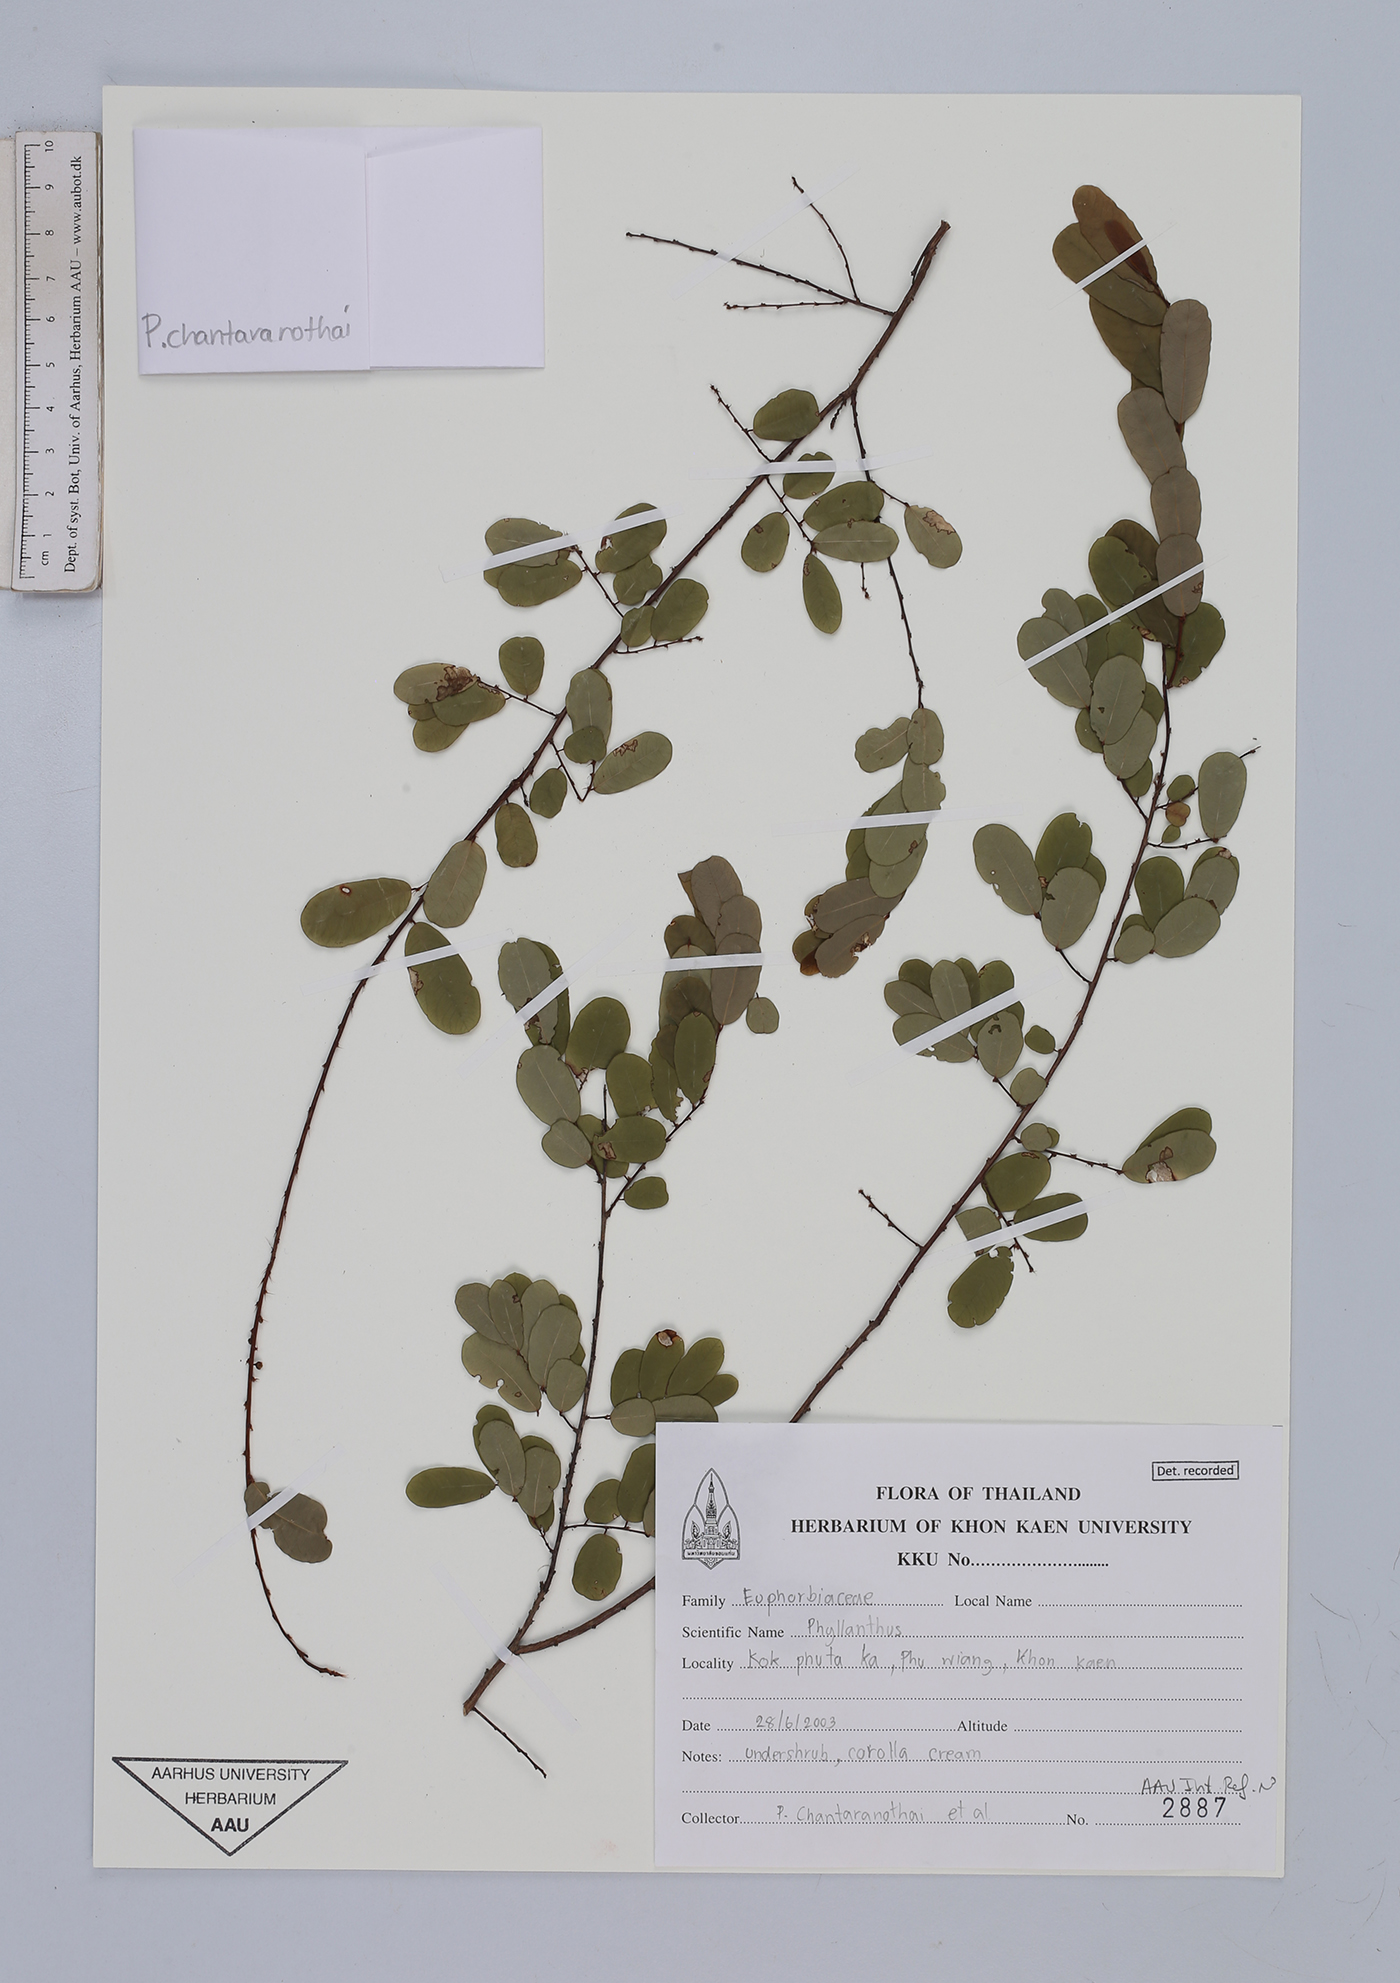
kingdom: Plantae
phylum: Tracheophyta
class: Magnoliopsida
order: Malpighiales
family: Euphorbiaceae
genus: Phyllanthos
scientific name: Phyllanthos
